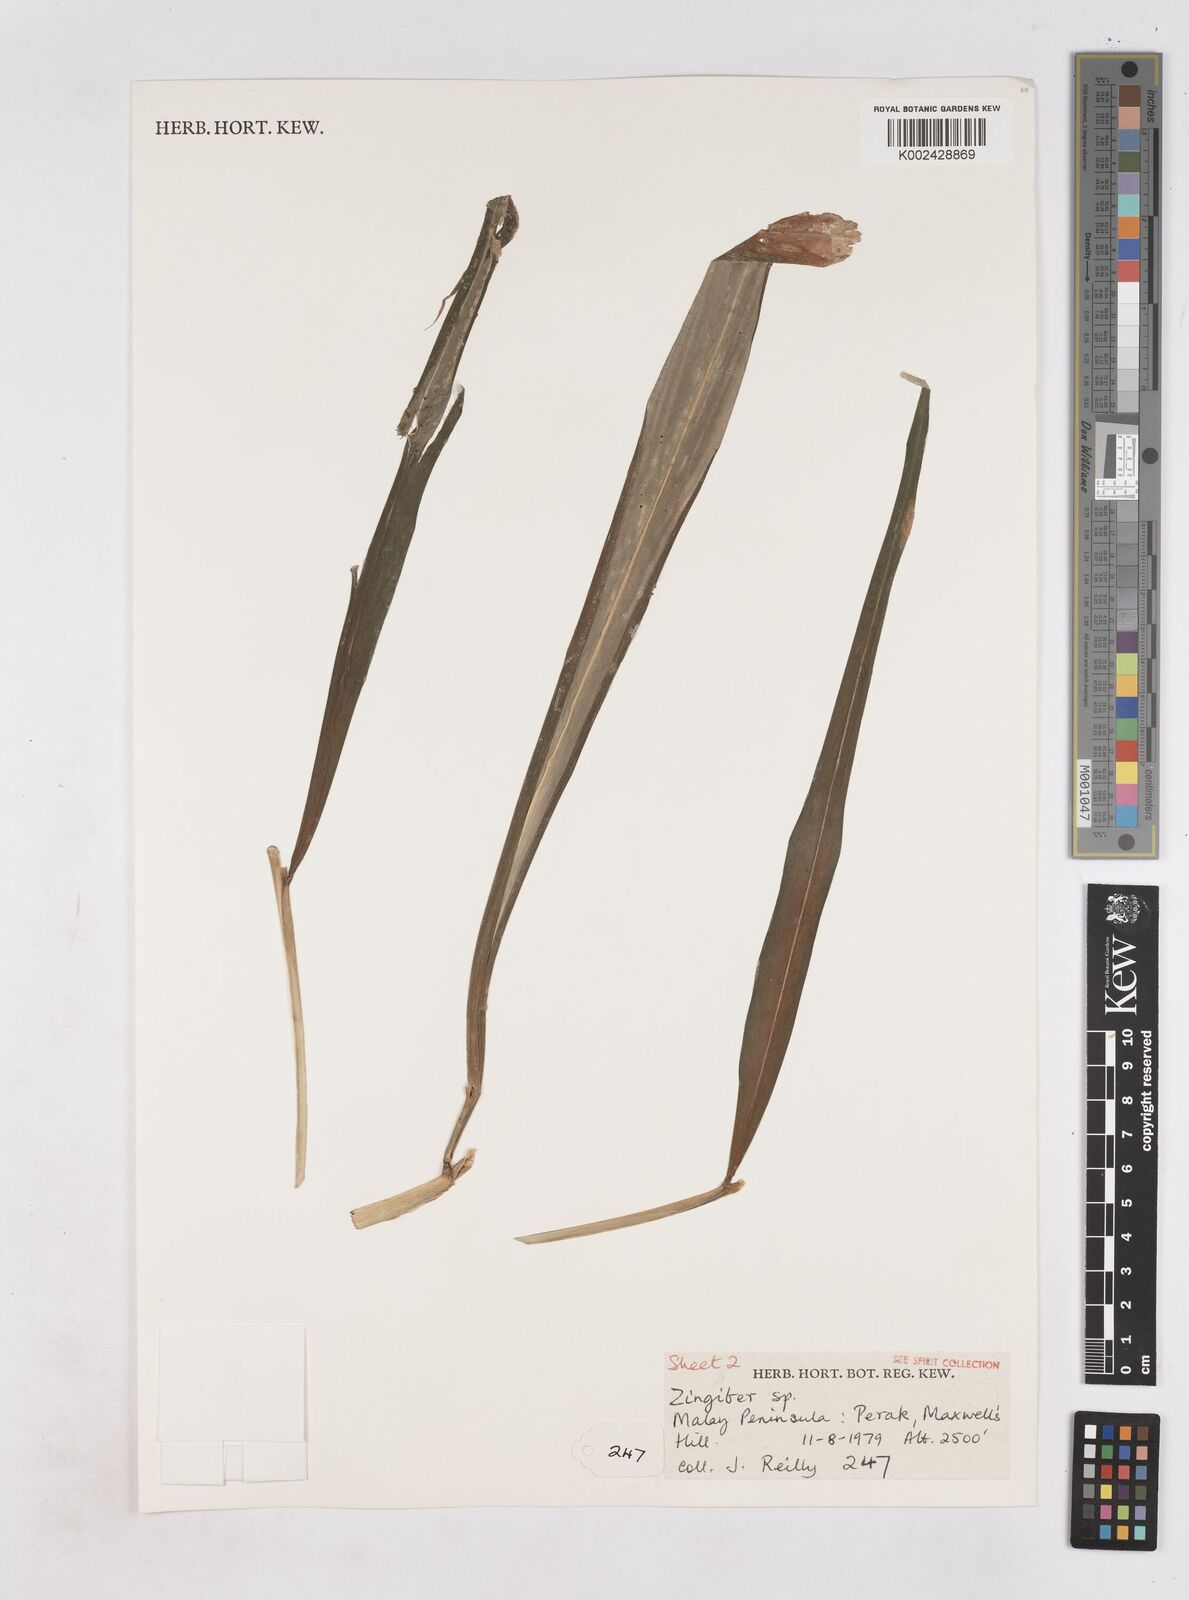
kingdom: Plantae
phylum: Tracheophyta
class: Liliopsida
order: Zingiberales
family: Zingiberaceae
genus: Zingiber
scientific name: Zingiber
